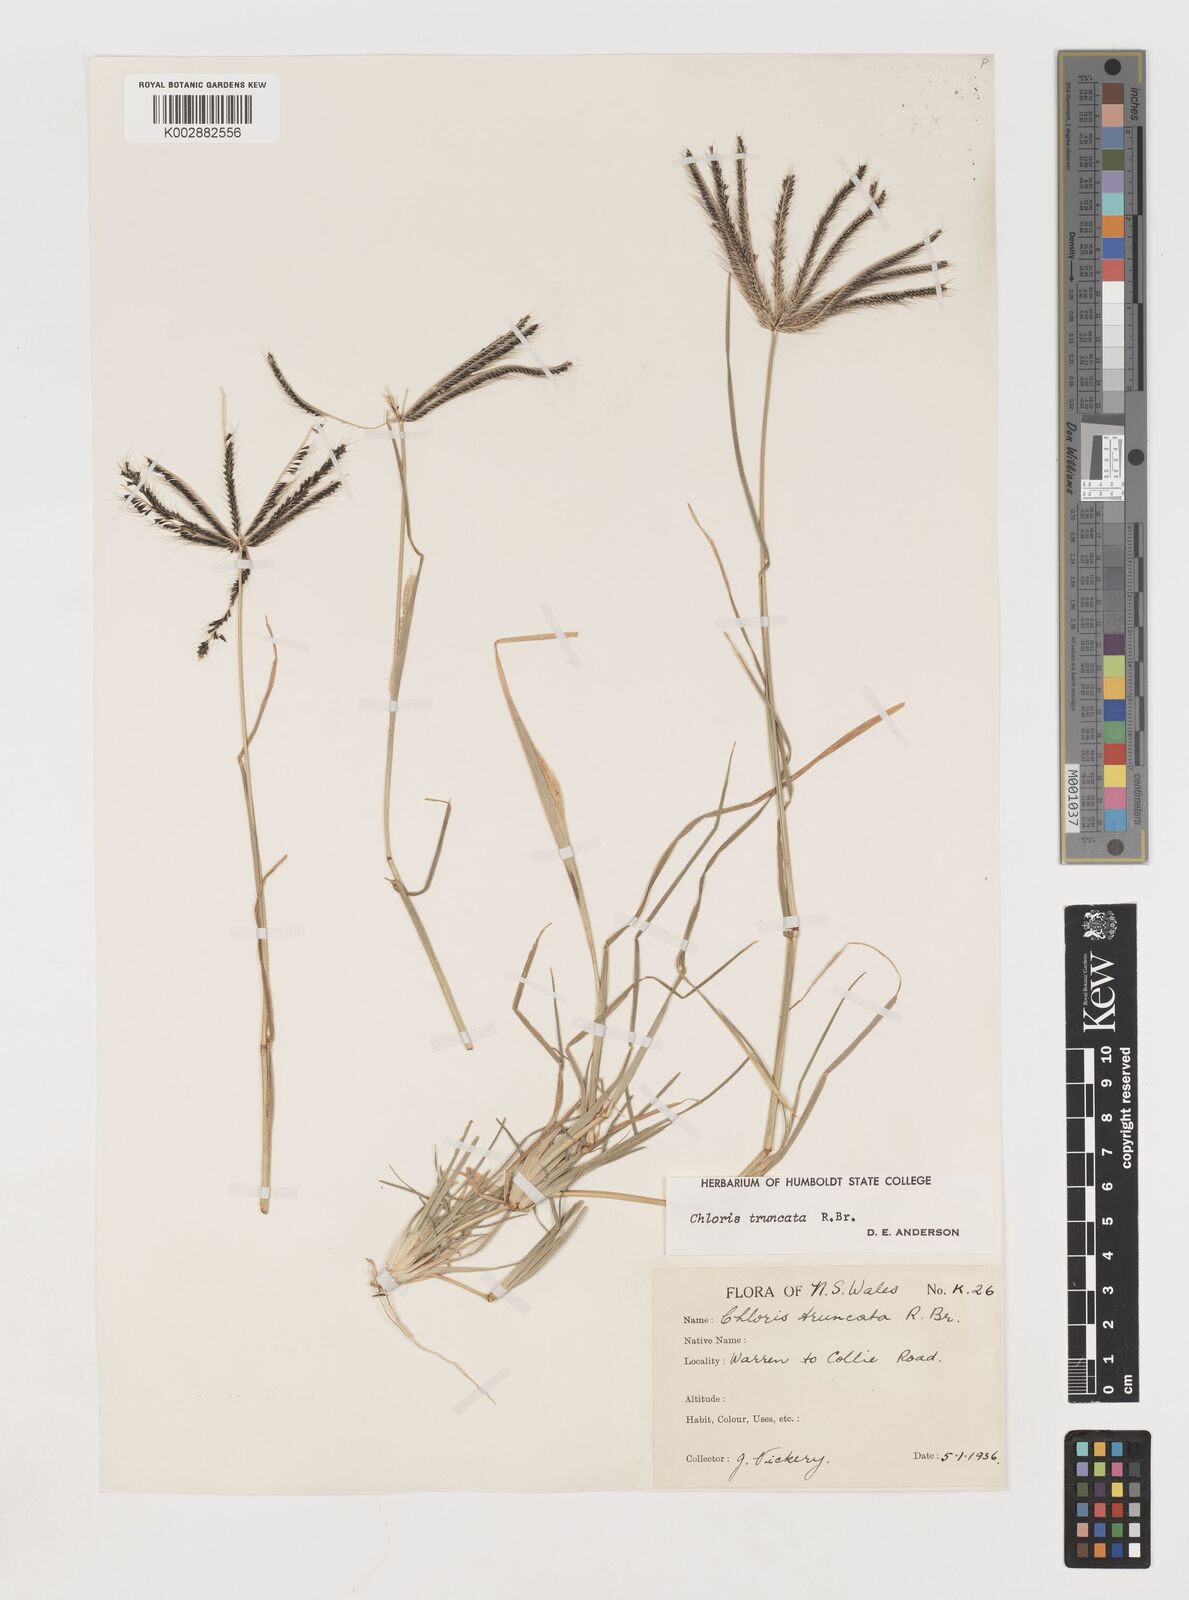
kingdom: Plantae
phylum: Tracheophyta
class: Liliopsida
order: Poales
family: Poaceae
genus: Chloris
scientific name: Chloris truncata
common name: Windmill-grass
